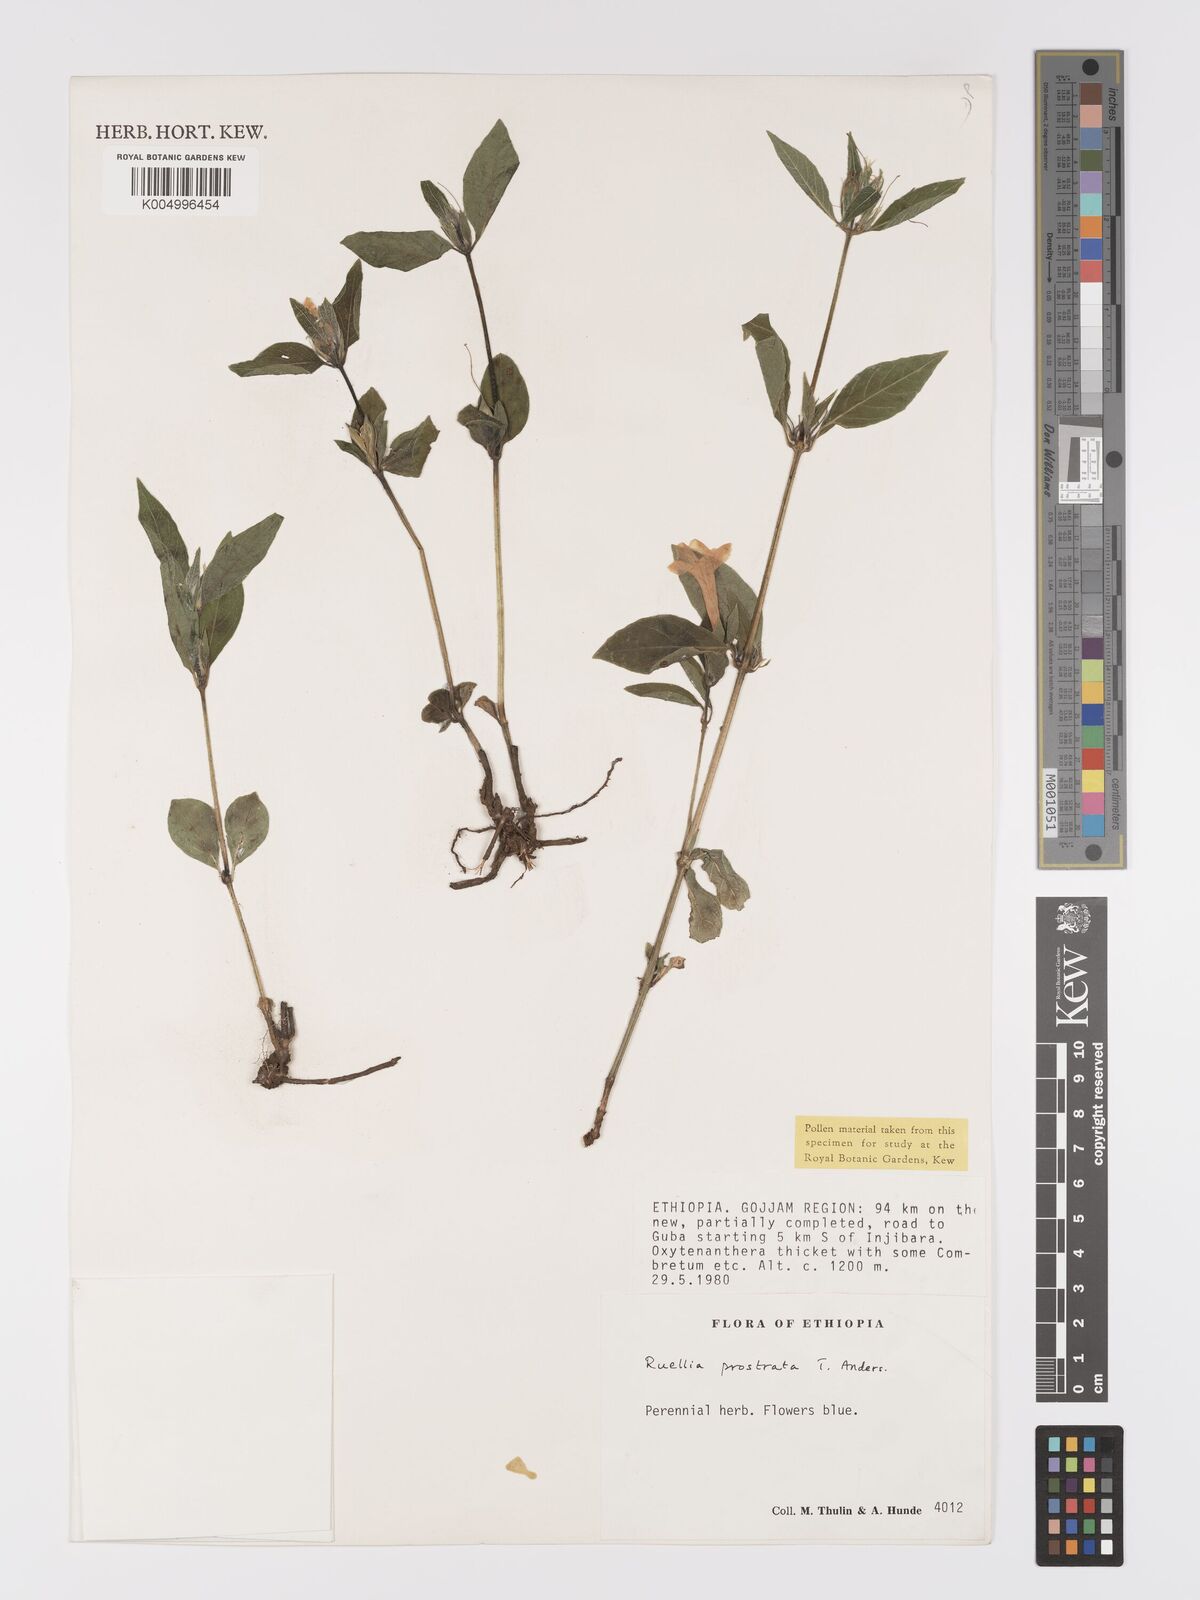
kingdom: Plantae
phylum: Tracheophyta
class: Magnoliopsida
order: Lamiales
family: Acanthaceae
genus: Ruellia
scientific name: Ruellia
